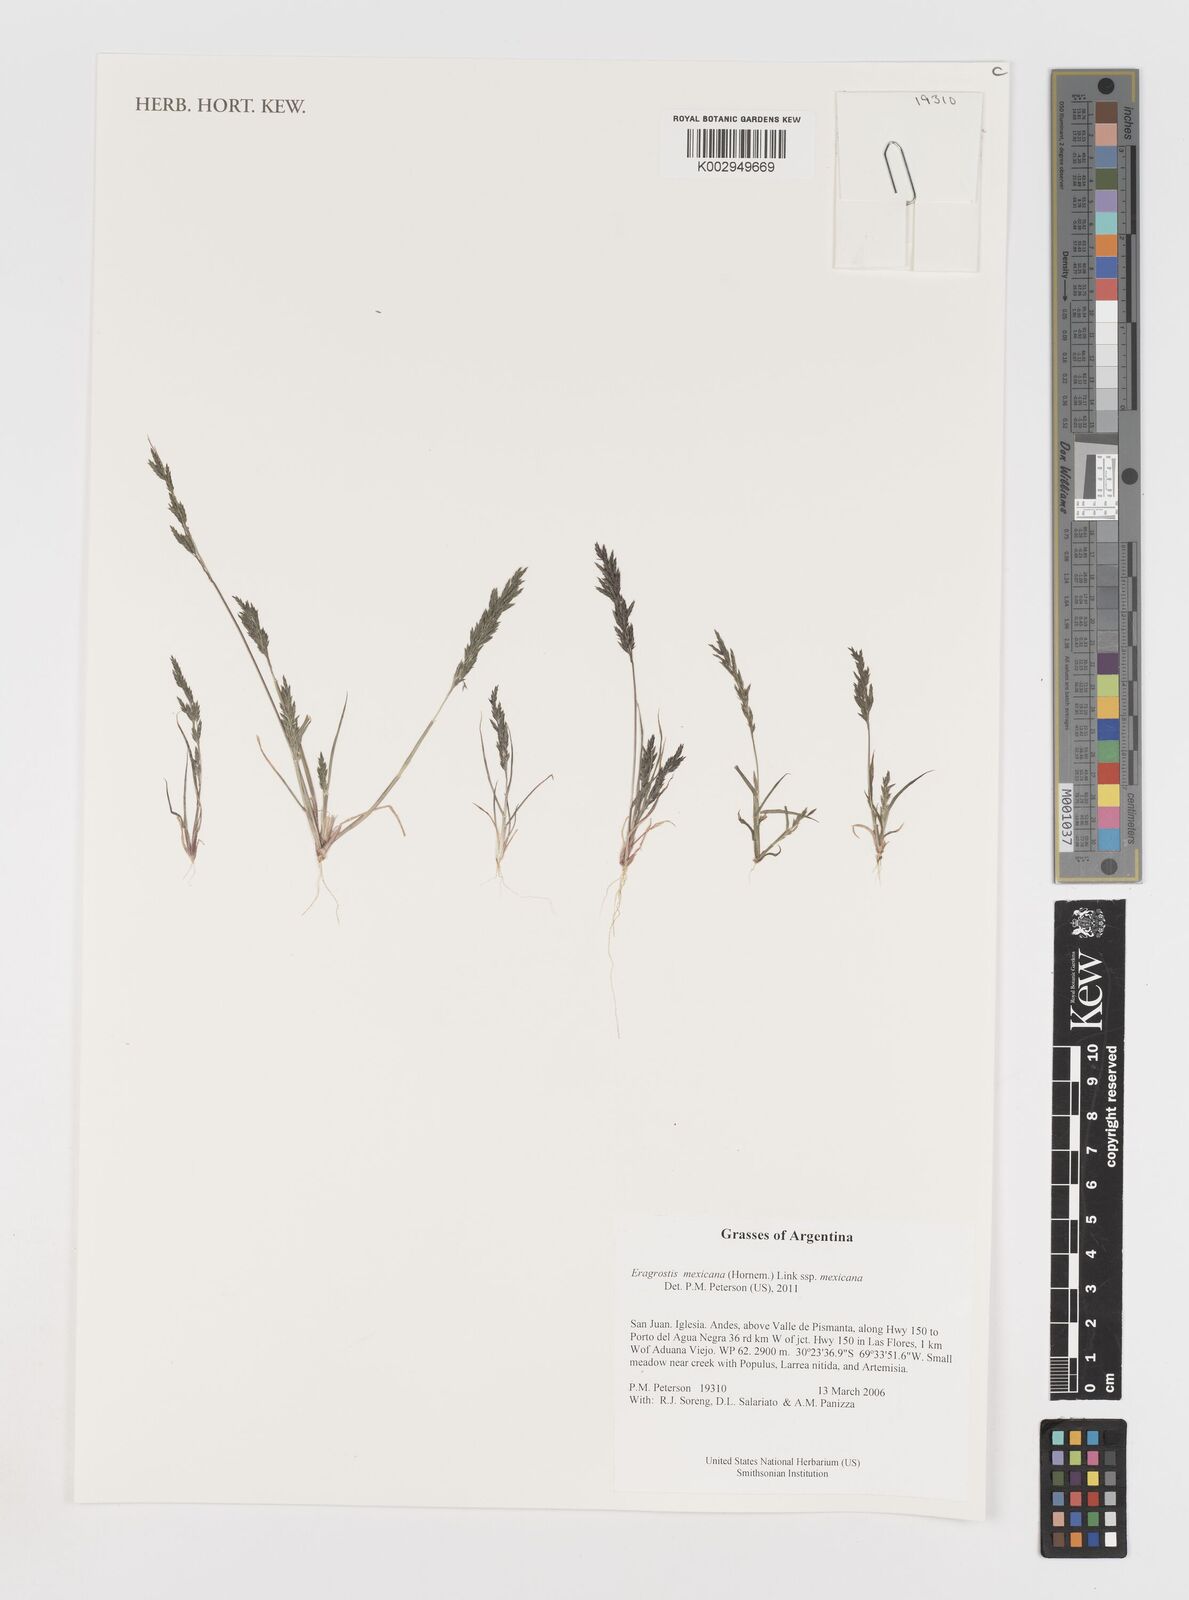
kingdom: Plantae
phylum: Tracheophyta
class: Liliopsida
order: Poales
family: Poaceae
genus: Eragrostis
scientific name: Eragrostis mexicana
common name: Mexican love grass
